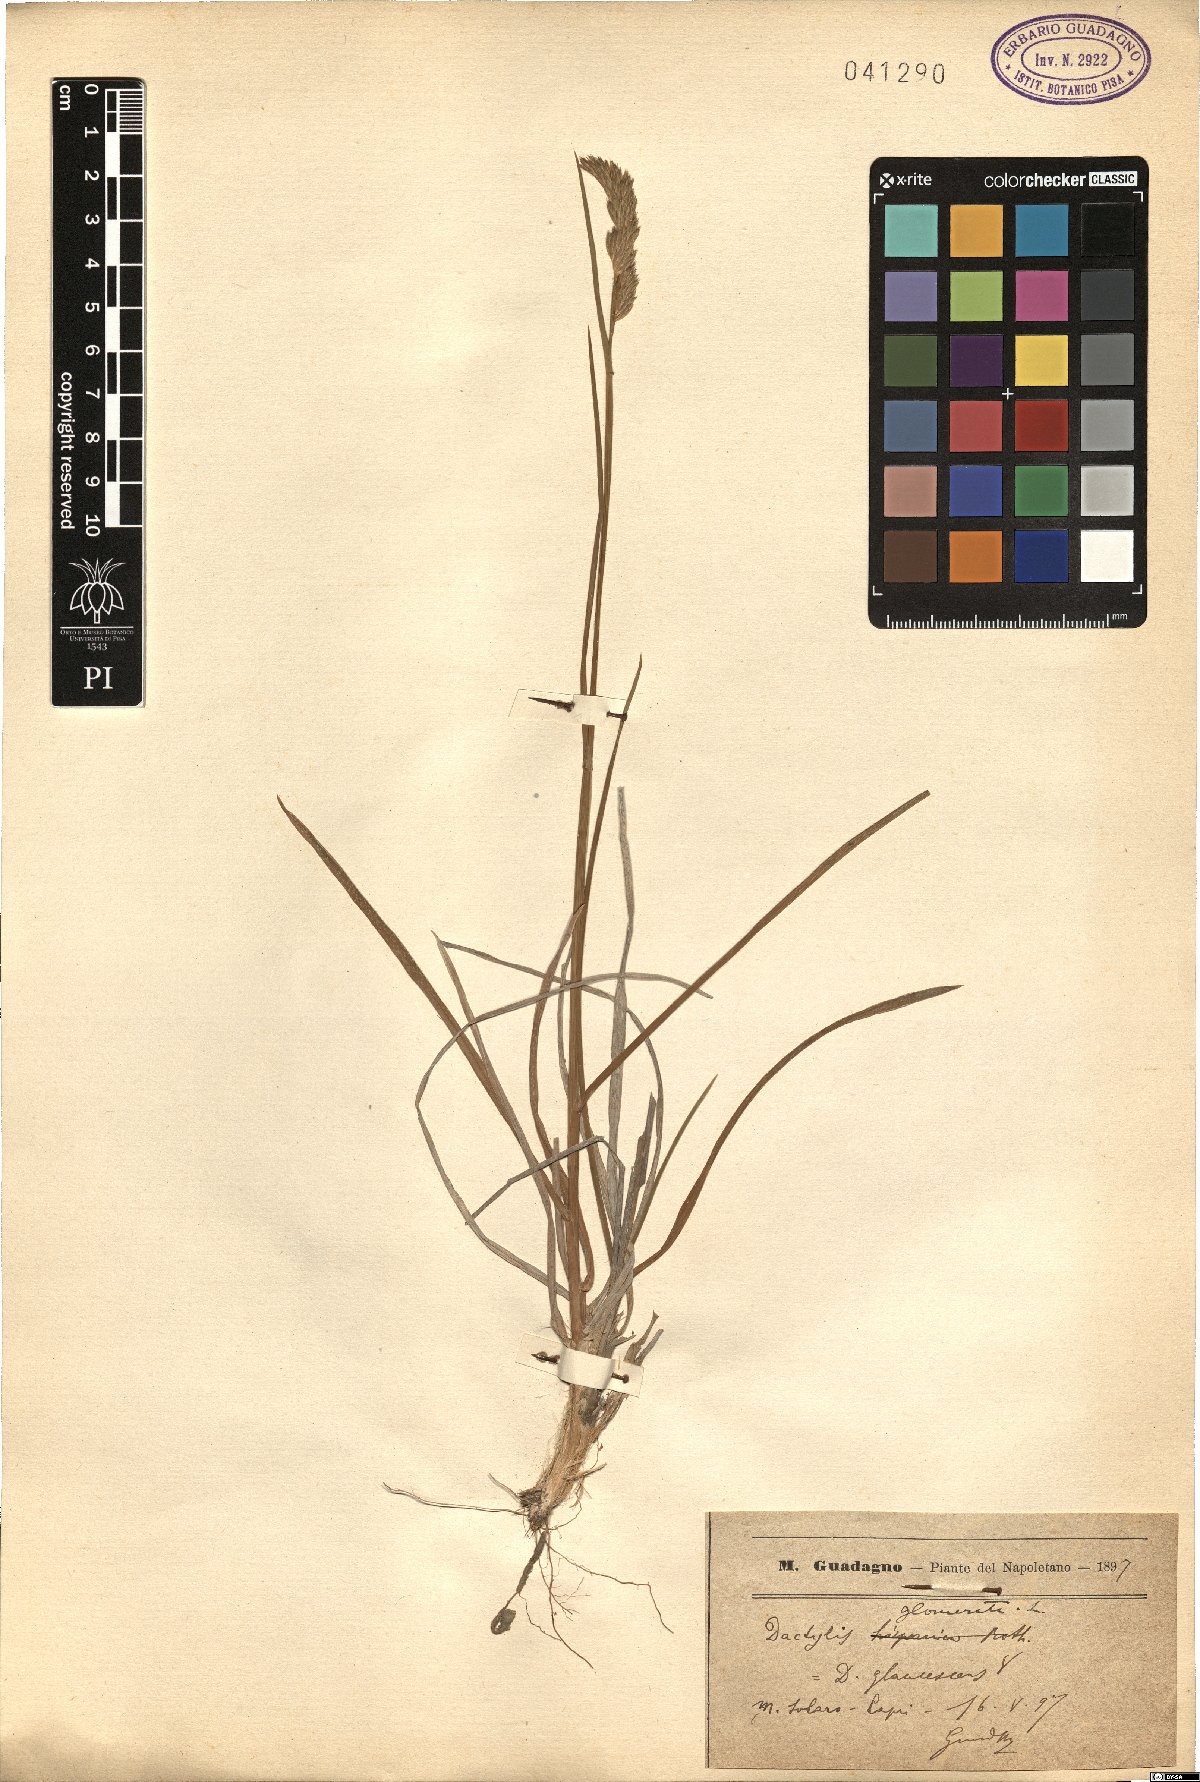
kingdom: Plantae
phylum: Tracheophyta
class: Liliopsida
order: Poales
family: Poaceae
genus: Dactylis
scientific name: Dactylis glomerata
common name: Orchardgrass
